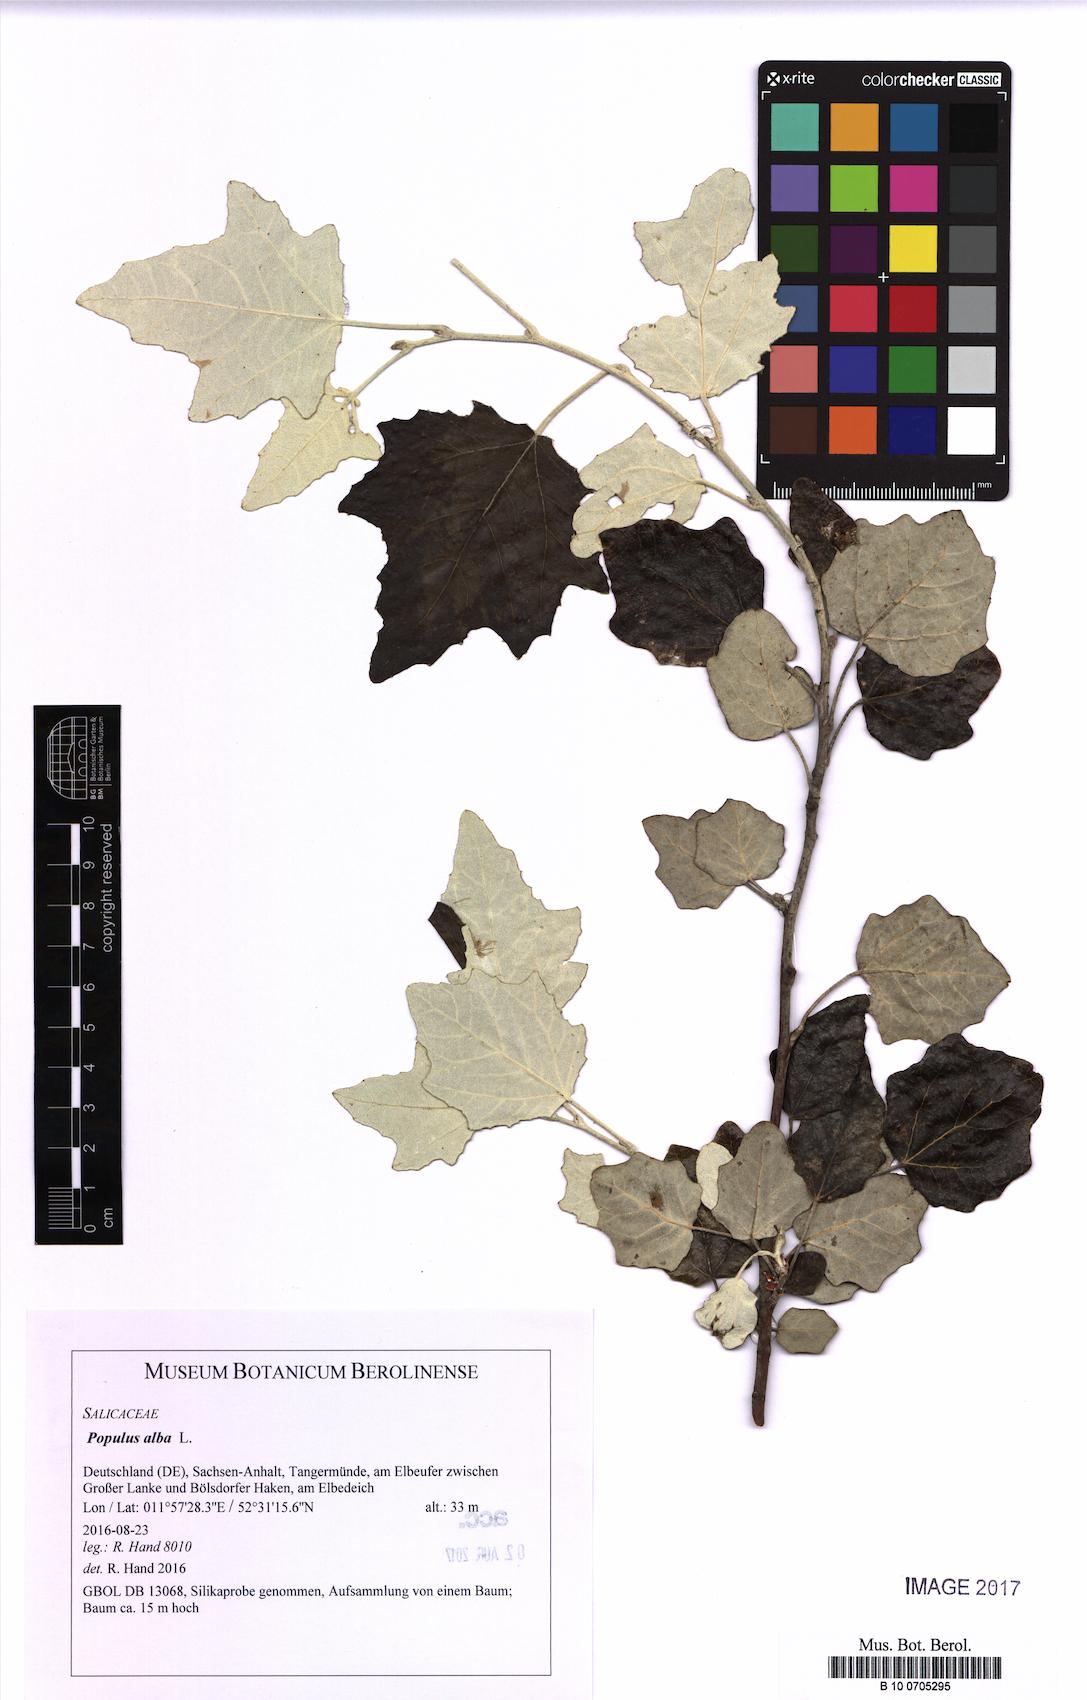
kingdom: Plantae
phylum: Tracheophyta
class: Magnoliopsida
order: Malpighiales
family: Salicaceae
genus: Populus
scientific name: Populus alba
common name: White poplar
